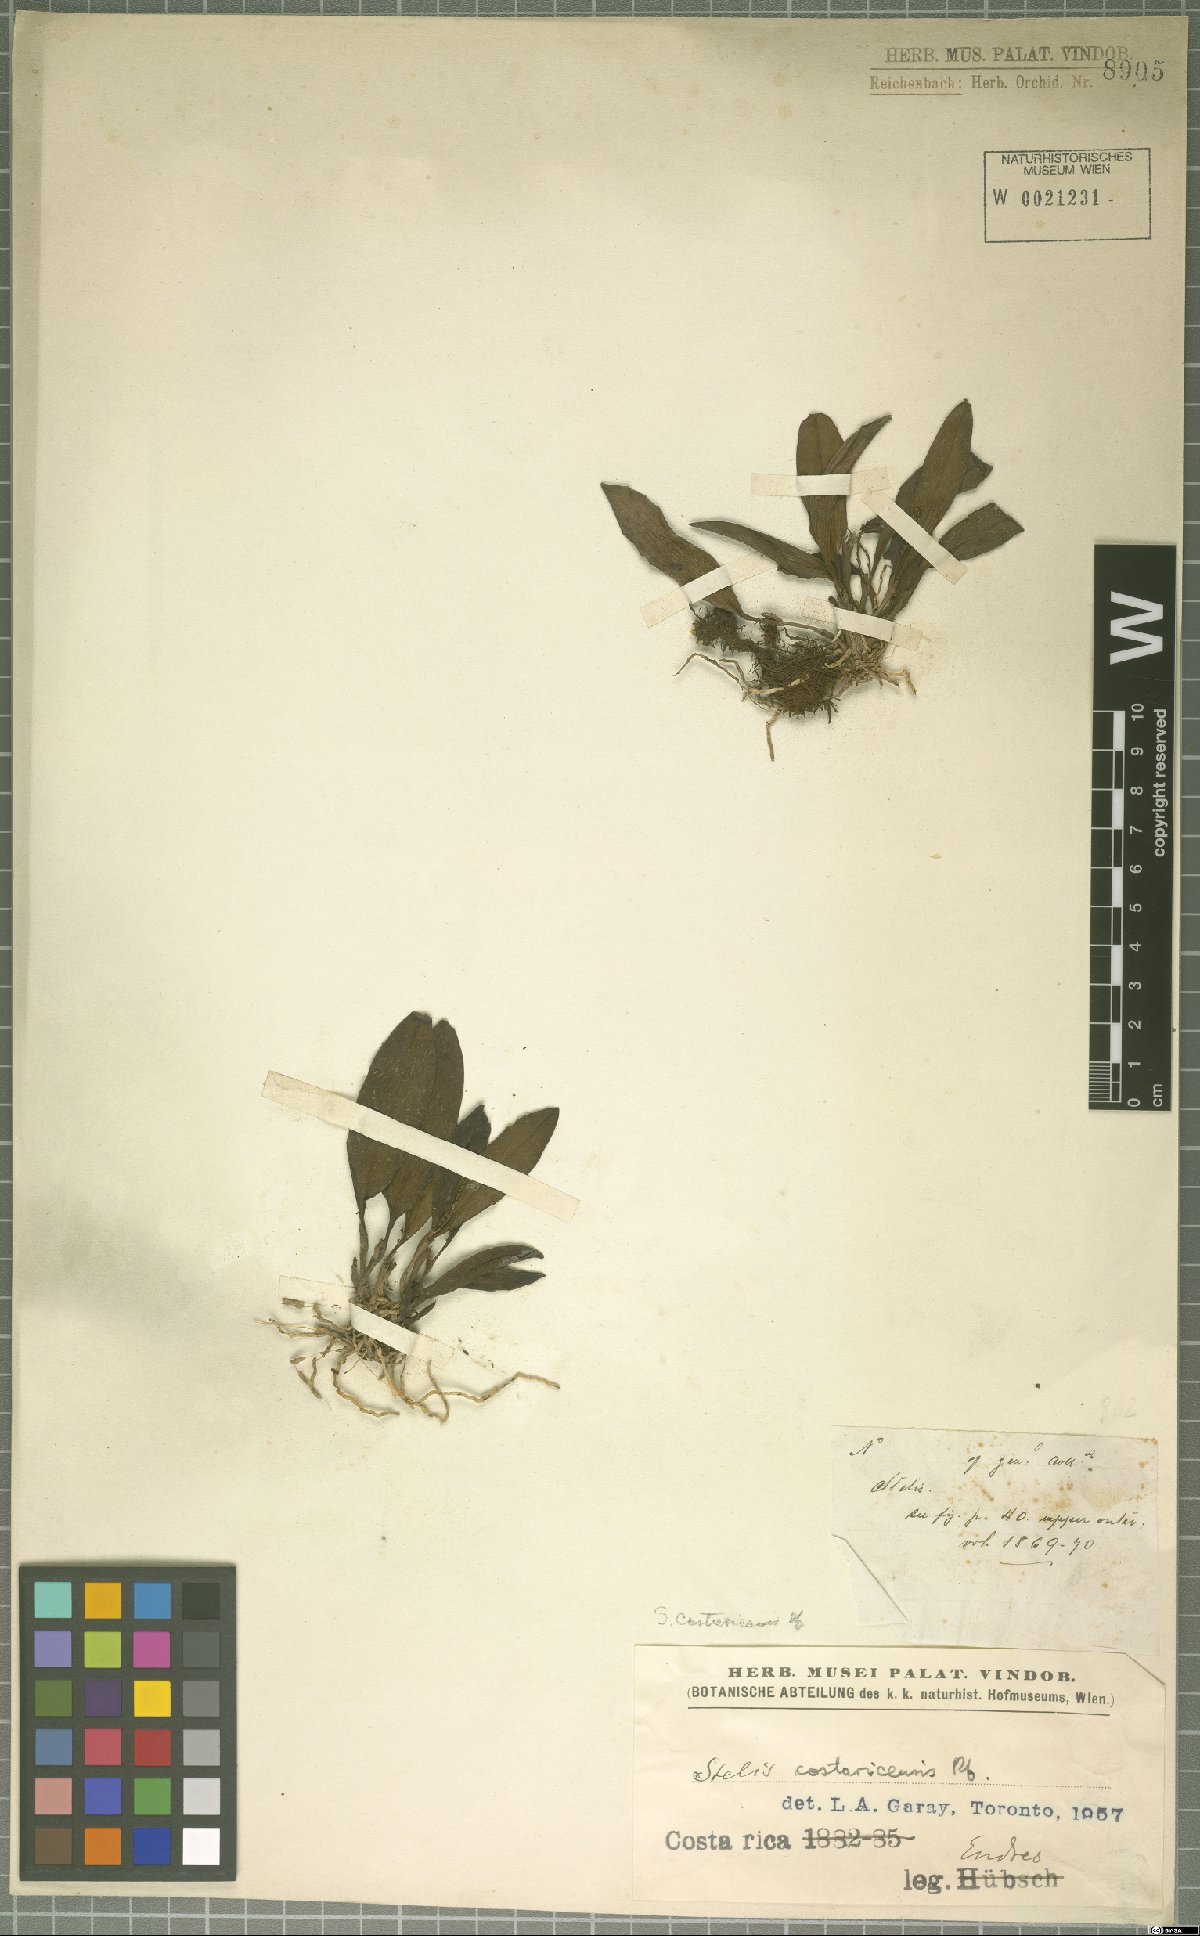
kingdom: Plantae
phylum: Tracheophyta
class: Liliopsida
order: Asparagales
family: Orchidaceae
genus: Stelis
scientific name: Stelis costaricensis
